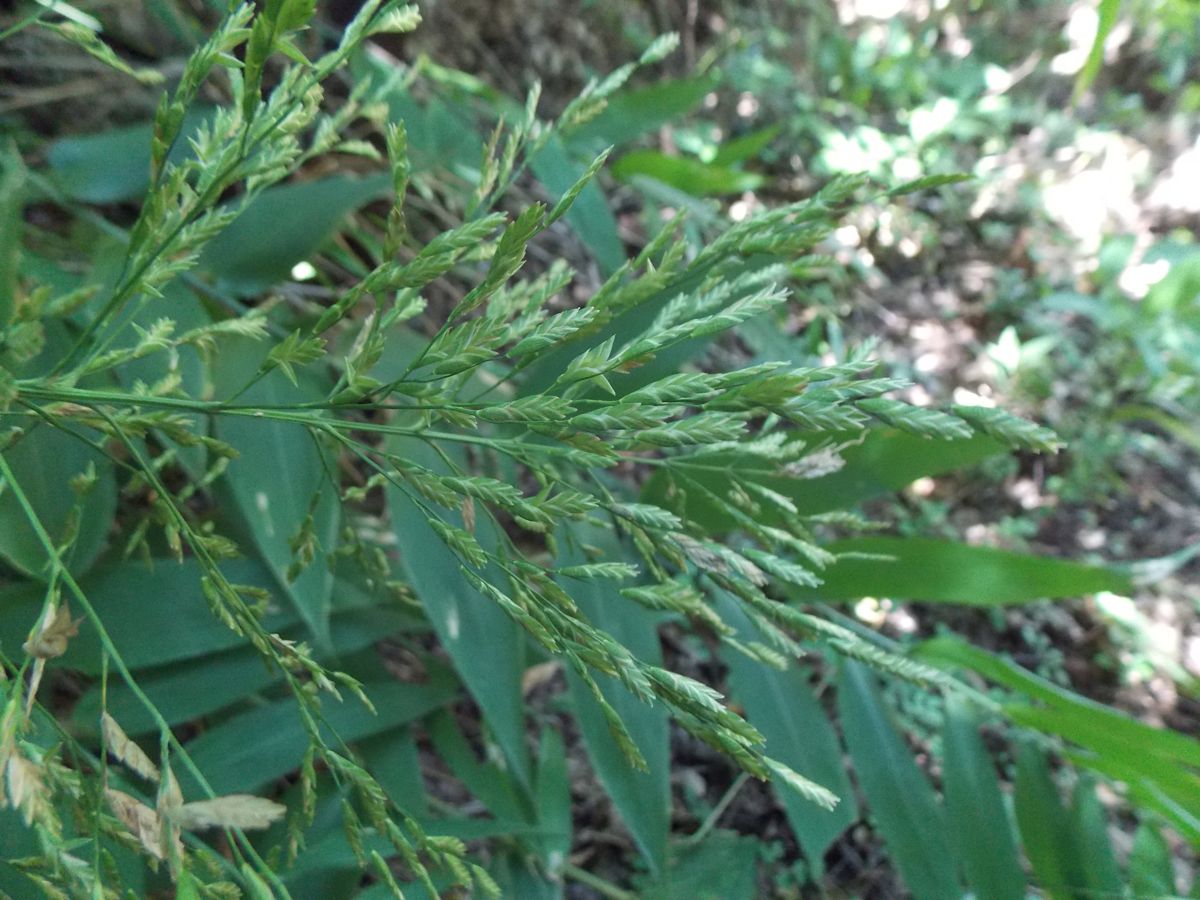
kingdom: Plantae
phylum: Tracheophyta
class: Liliopsida
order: Poales
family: Poaceae
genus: Zeugites
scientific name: Zeugites pittieri
